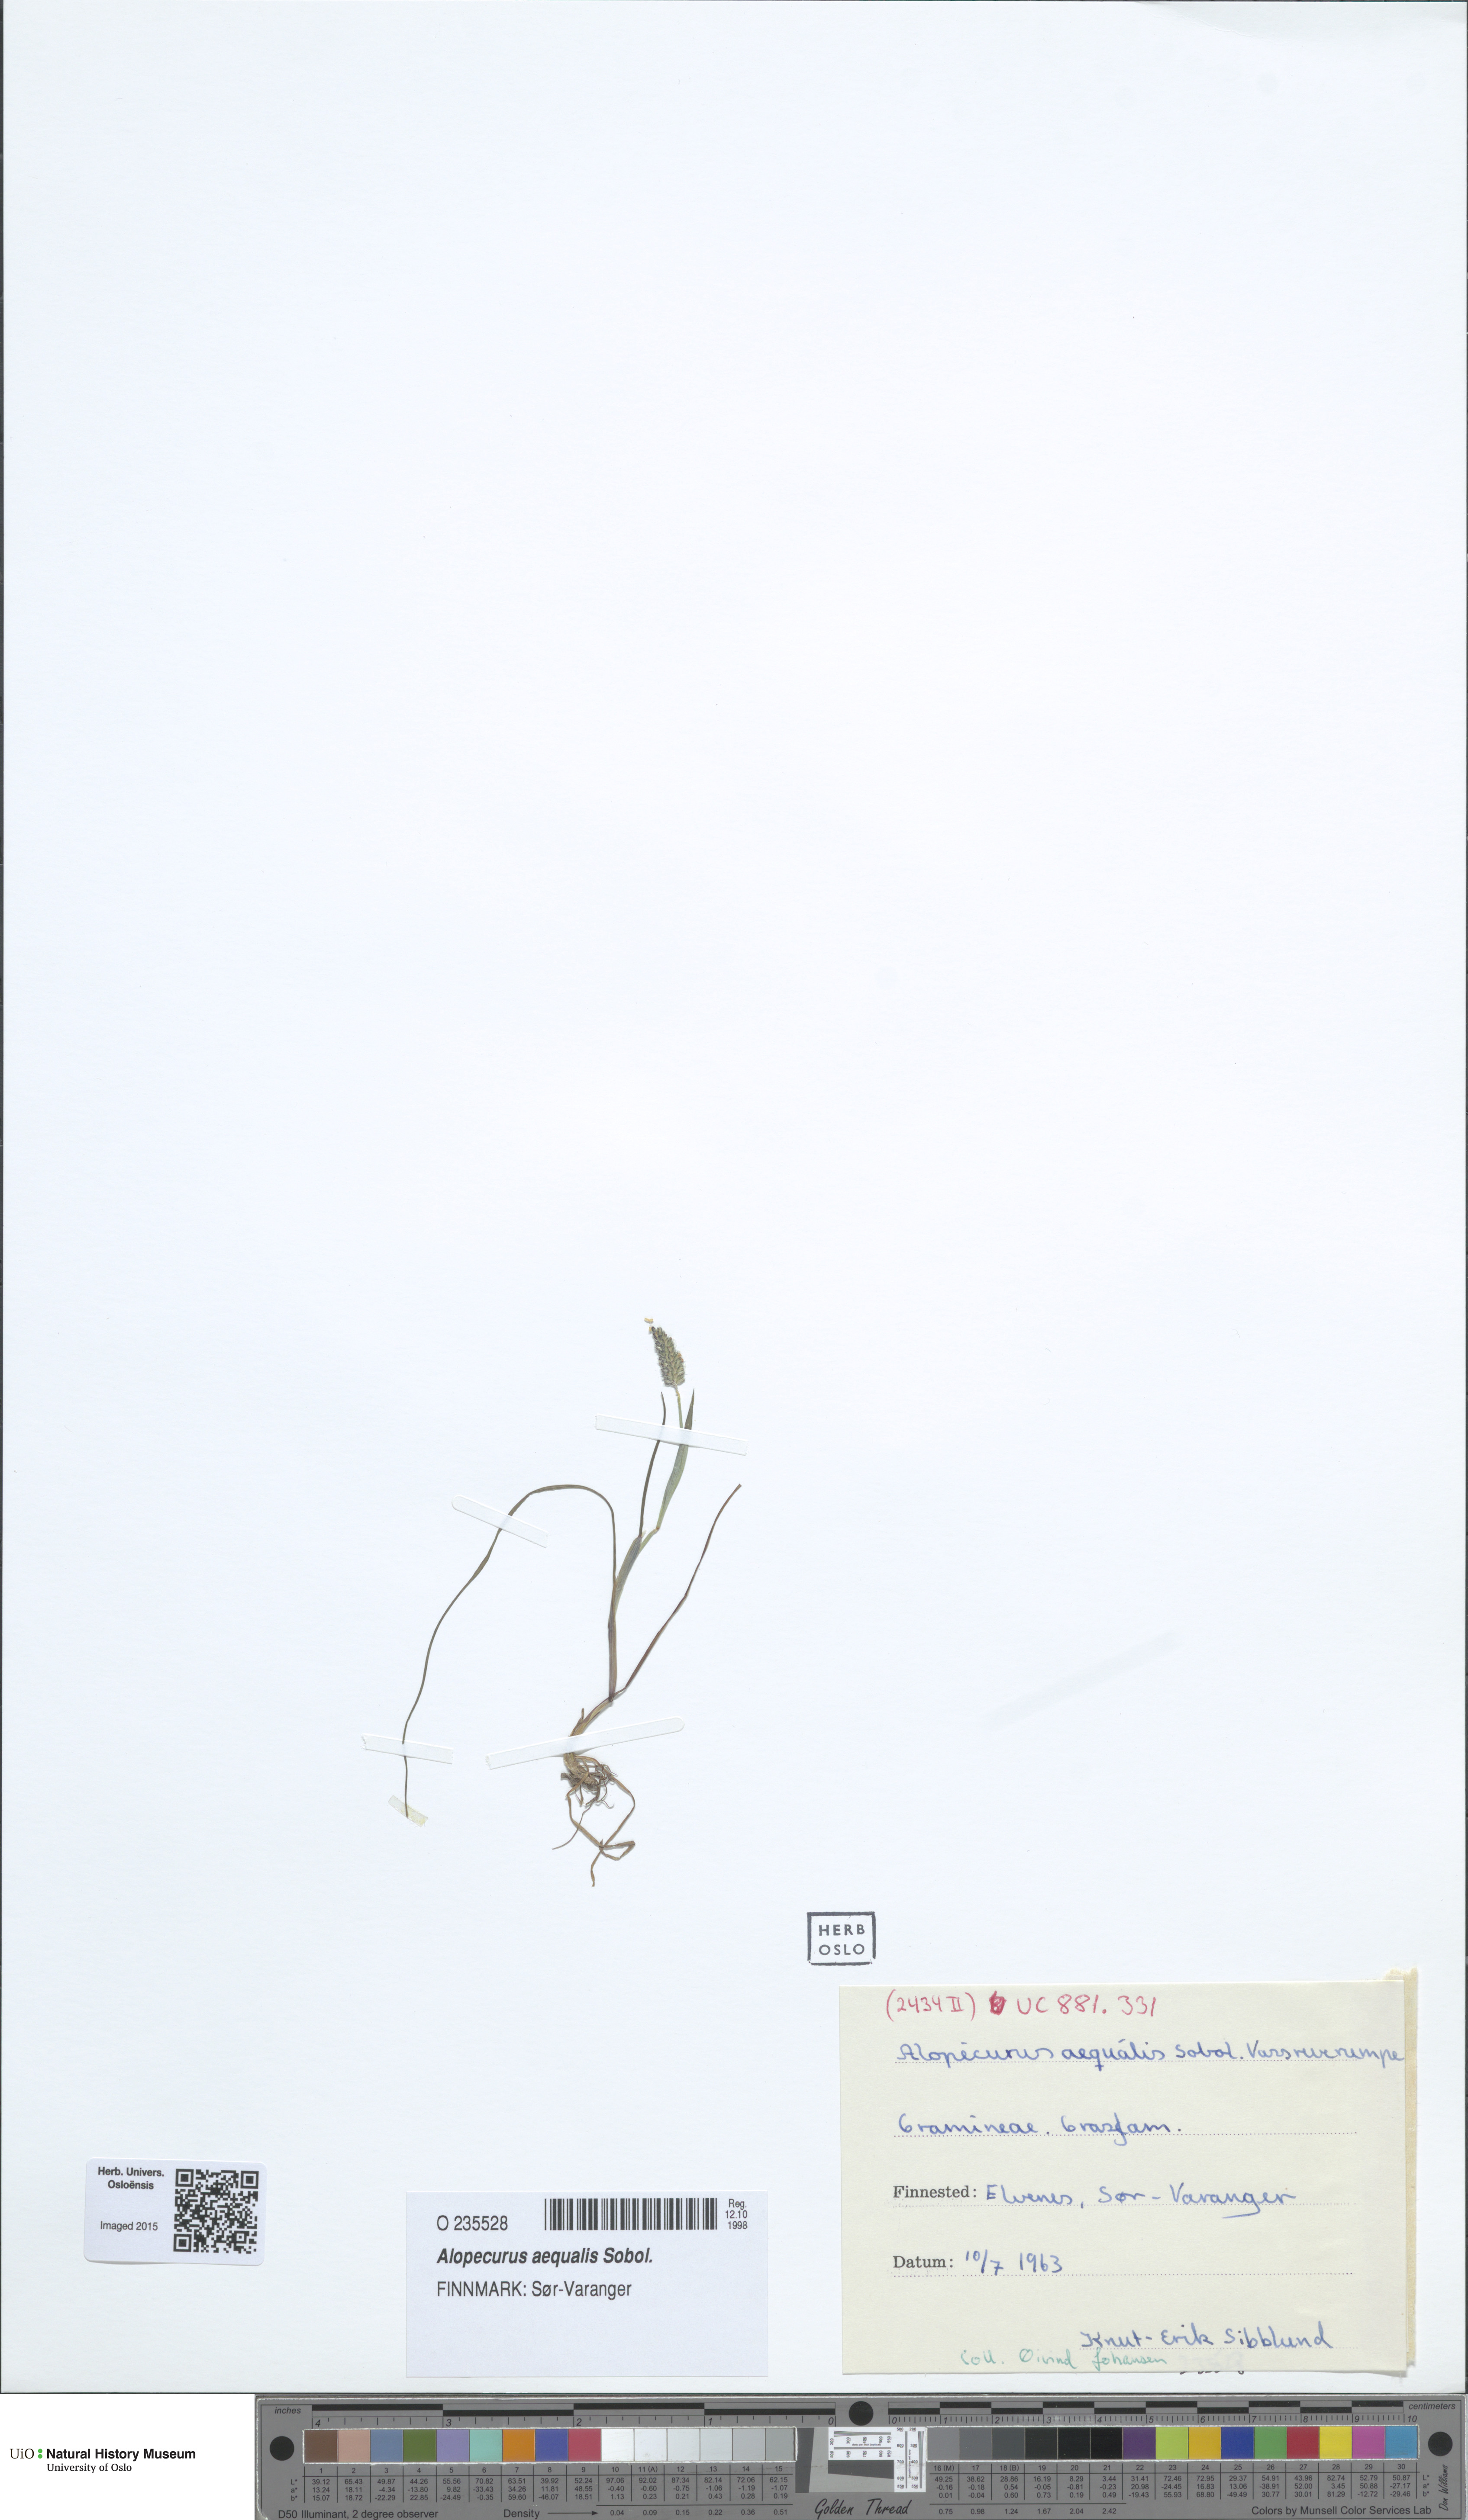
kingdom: Plantae
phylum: Tracheophyta
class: Liliopsida
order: Poales
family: Poaceae
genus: Alopecurus
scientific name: Alopecurus aequalis
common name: Orange foxtail
